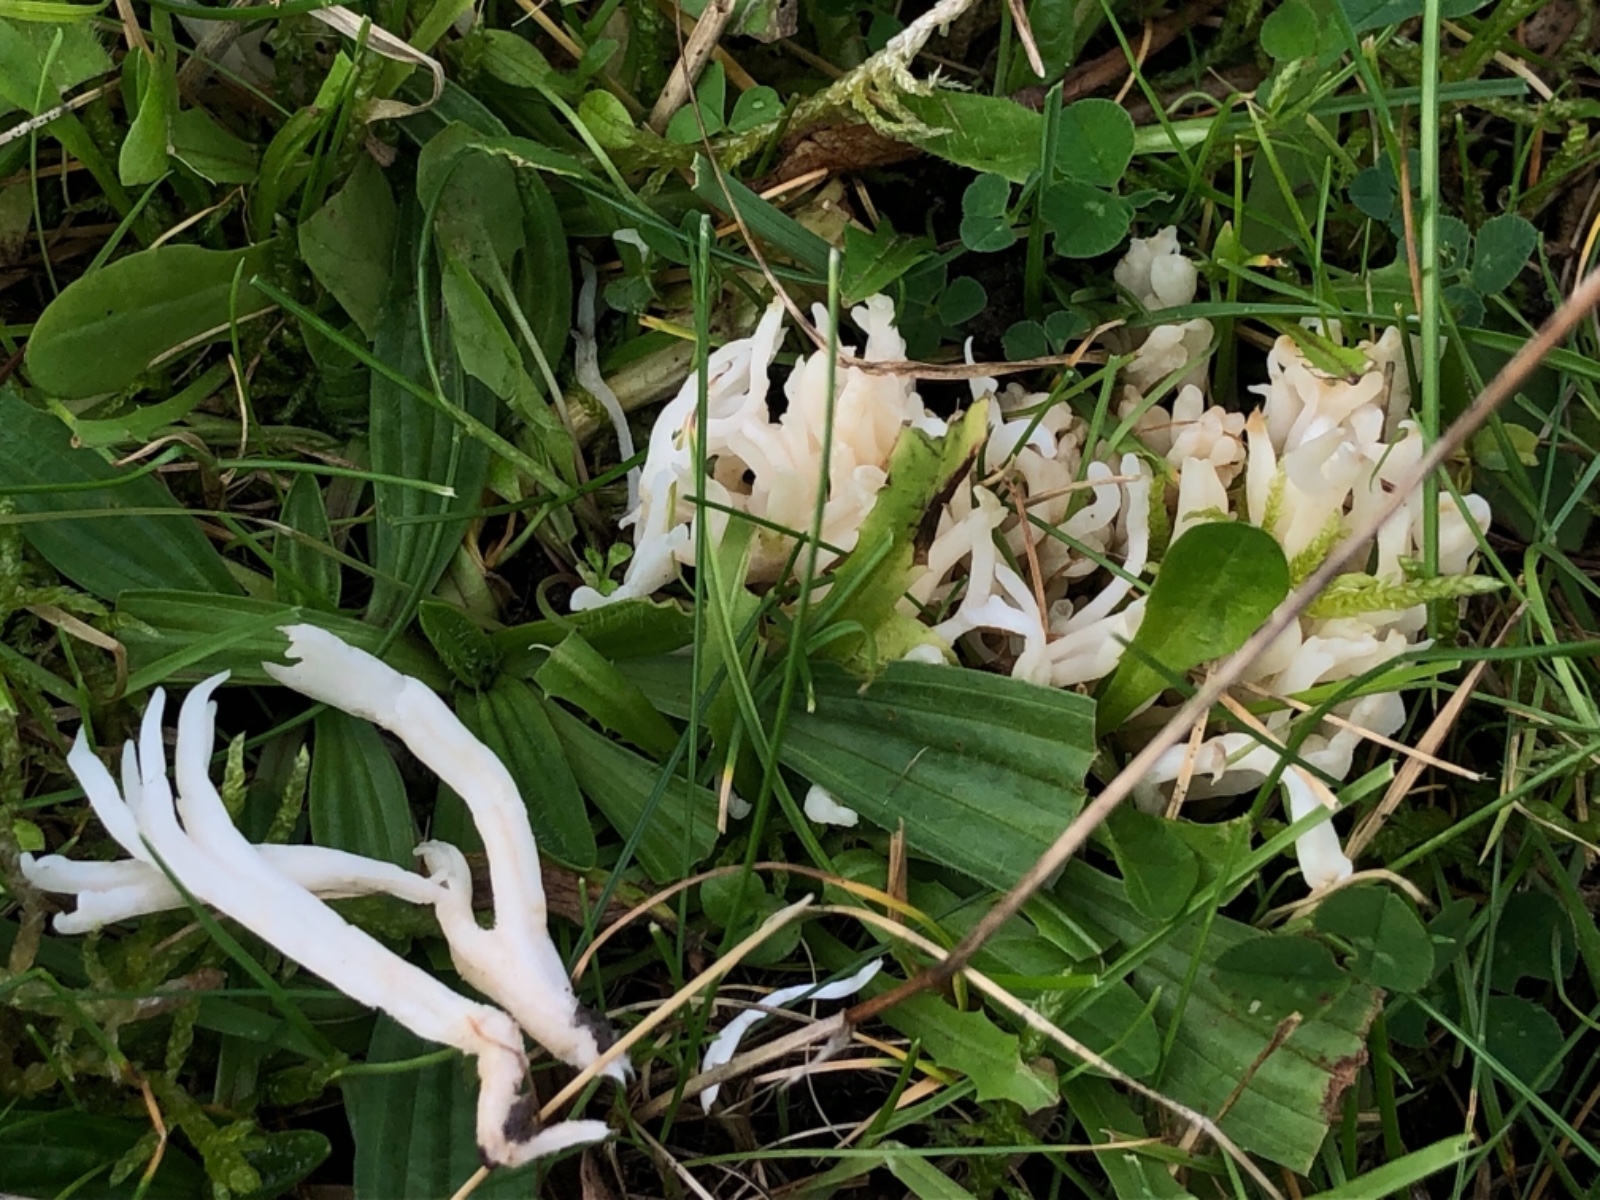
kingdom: Fungi
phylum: Basidiomycota
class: Agaricomycetes
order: Agaricales
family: Clavariaceae
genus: Ramariopsis
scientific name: Ramariopsis
